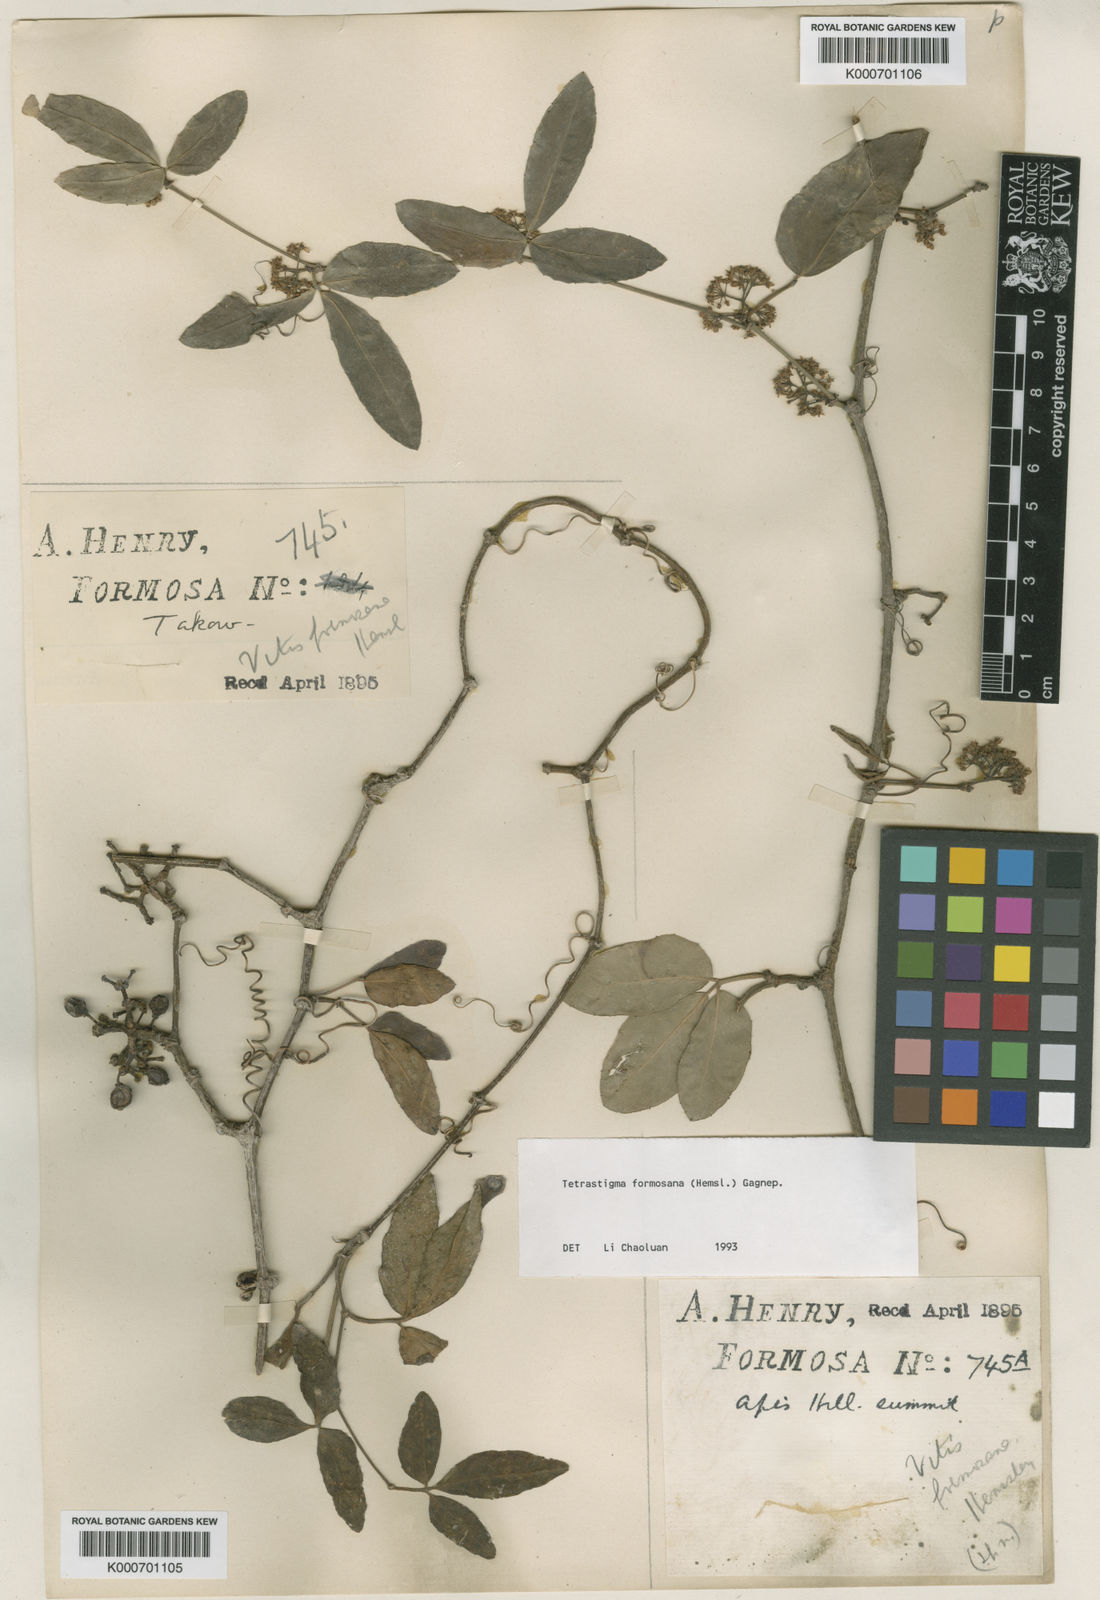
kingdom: Plantae
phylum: Tracheophyta
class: Magnoliopsida
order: Vitales
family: Vitaceae
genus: Tetrastigma
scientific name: Tetrastigma formosanum
